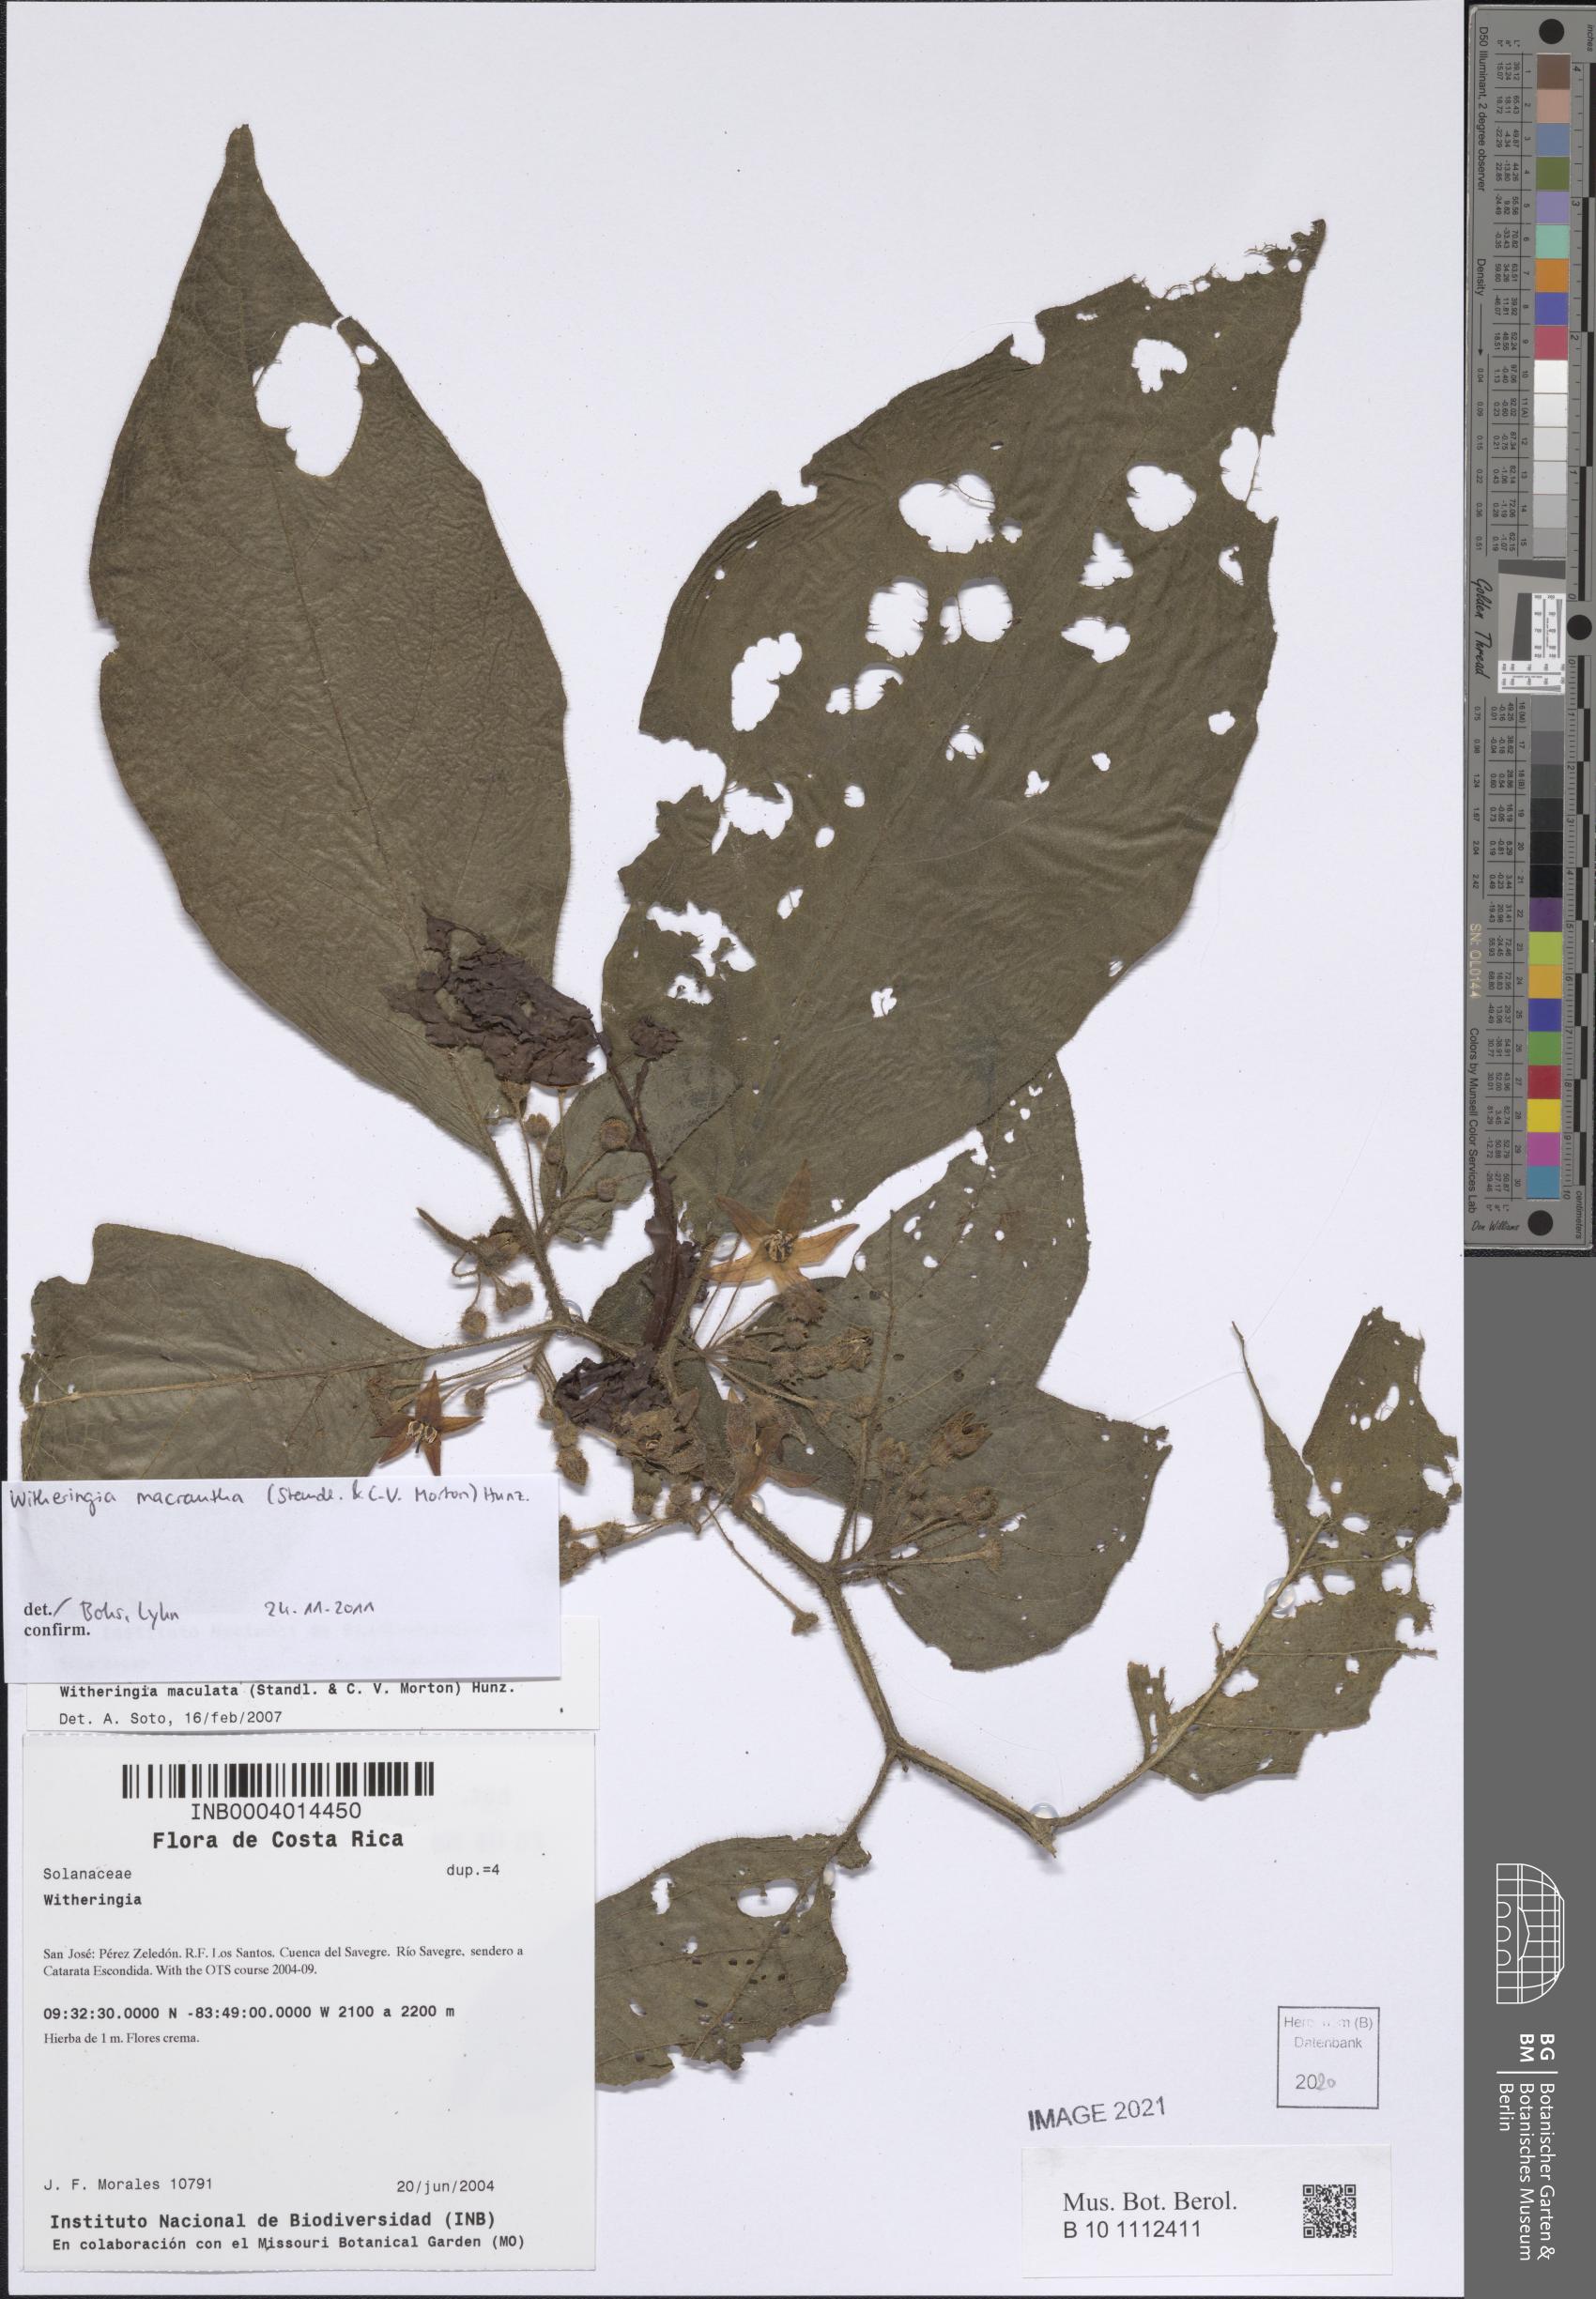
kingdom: Plantae
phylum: Tracheophyta
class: Magnoliopsida
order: Solanales
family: Solanaceae
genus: Witheringia
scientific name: Witheringia maculata
